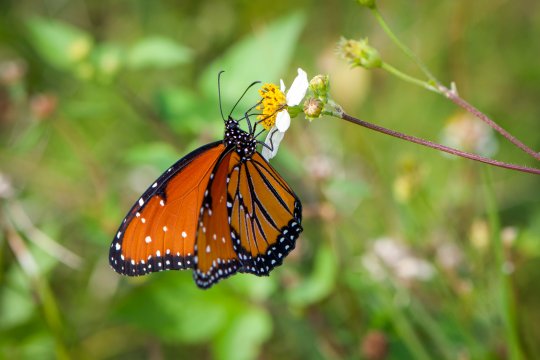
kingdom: Animalia
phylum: Arthropoda
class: Insecta
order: Lepidoptera
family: Nymphalidae
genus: Danaus
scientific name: Danaus gilippus
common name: Queen
